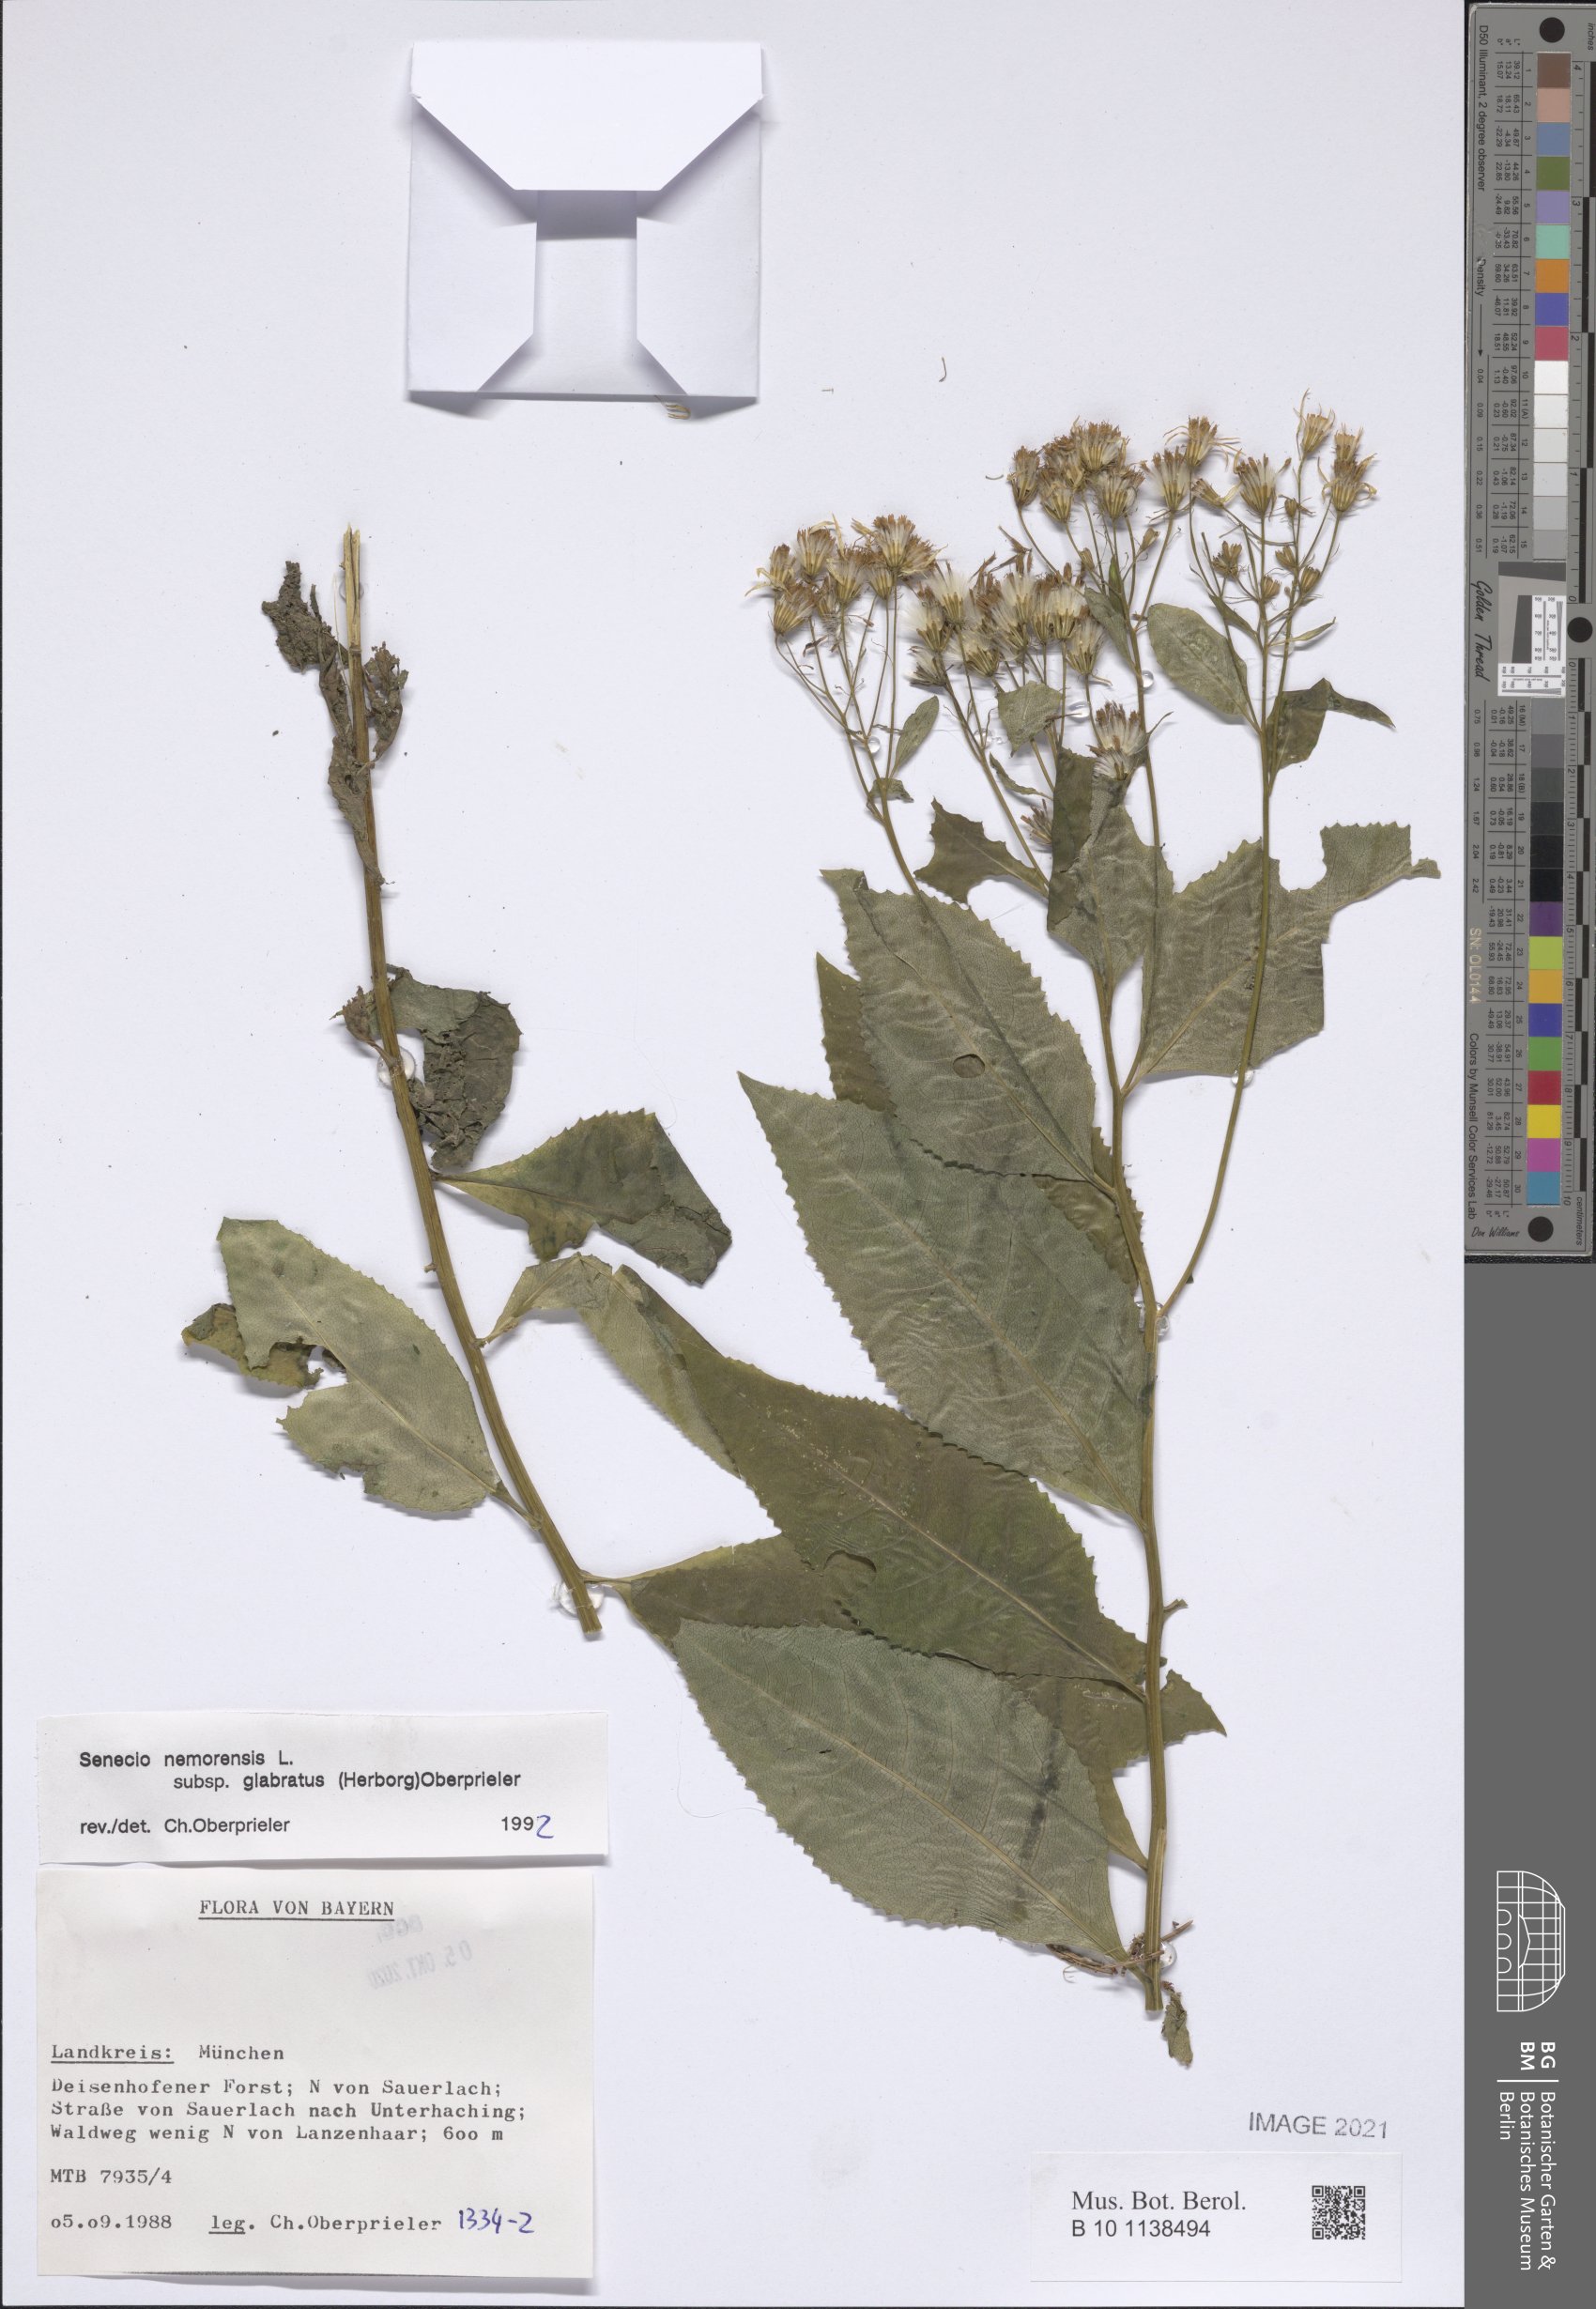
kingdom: Plantae
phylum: Tracheophyta
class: Magnoliopsida
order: Asterales
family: Asteraceae
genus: Senecio
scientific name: Senecio germanicus
